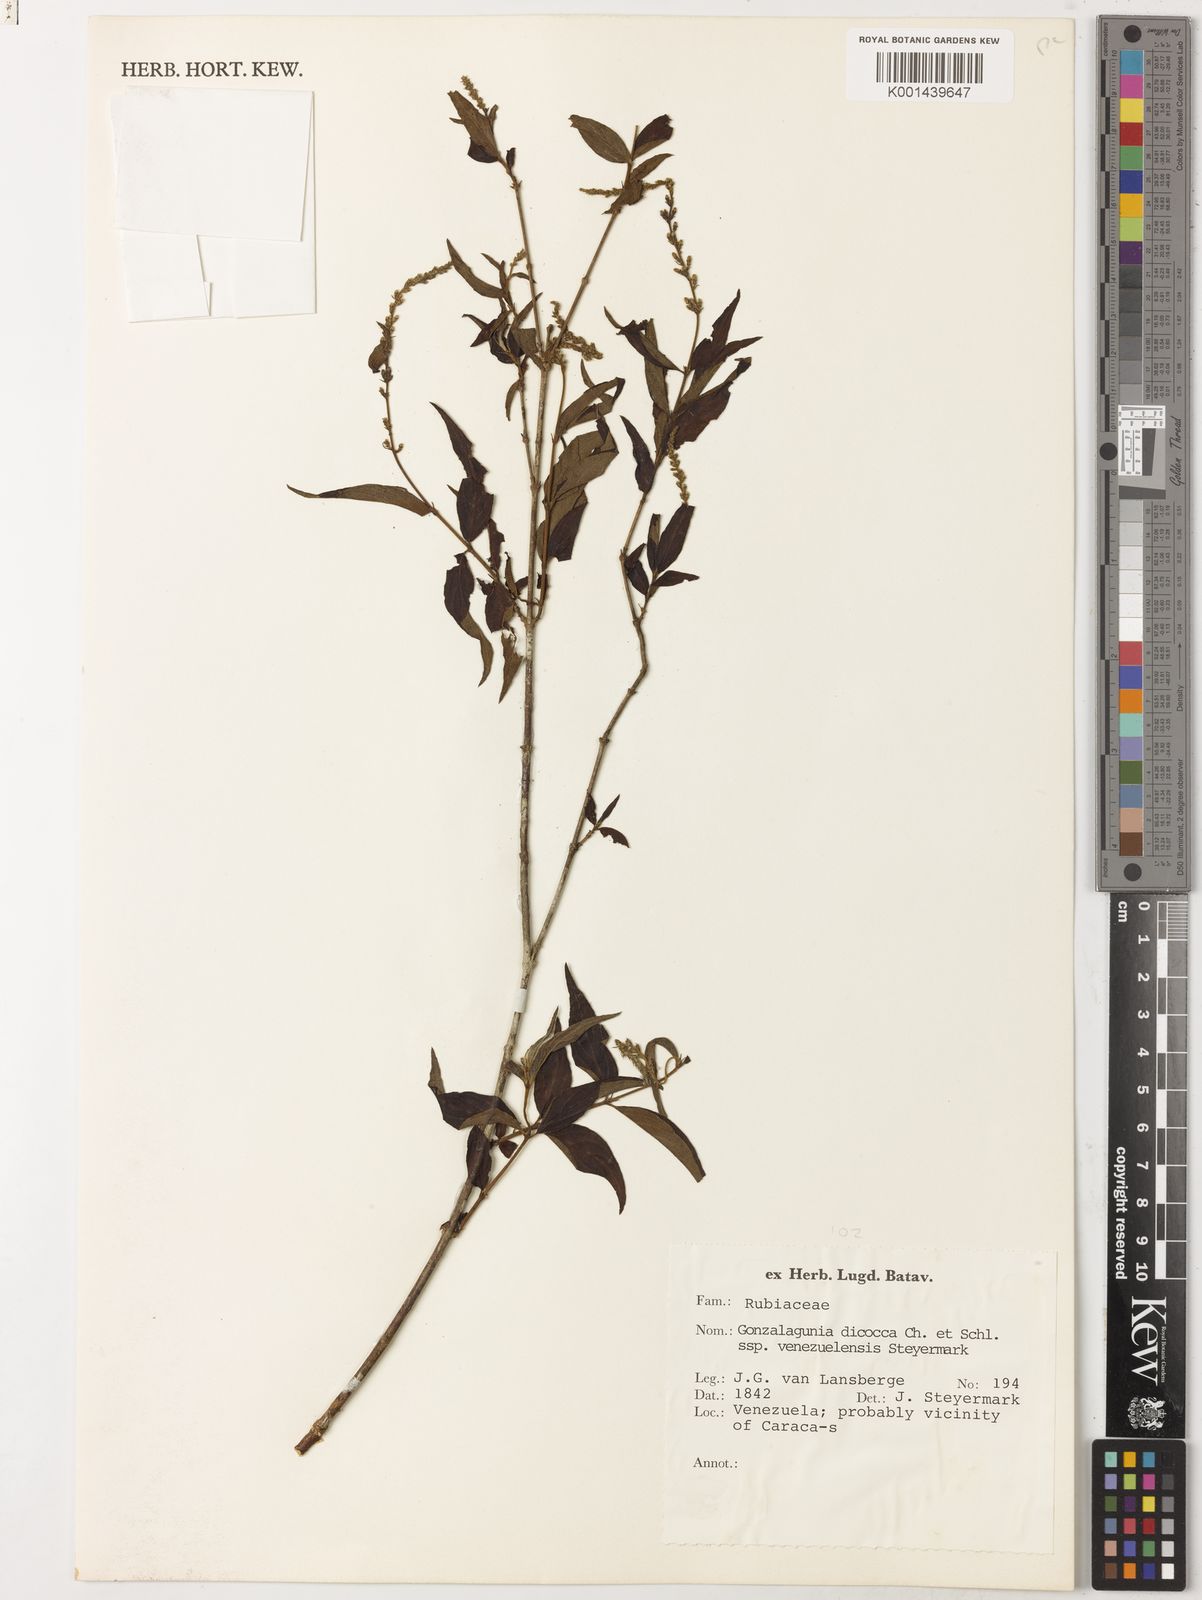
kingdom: Plantae
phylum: Tracheophyta
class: Magnoliopsida
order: Gentianales
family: Rubiaceae
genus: Gonzalagunia
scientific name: Gonzalagunia dicocca
